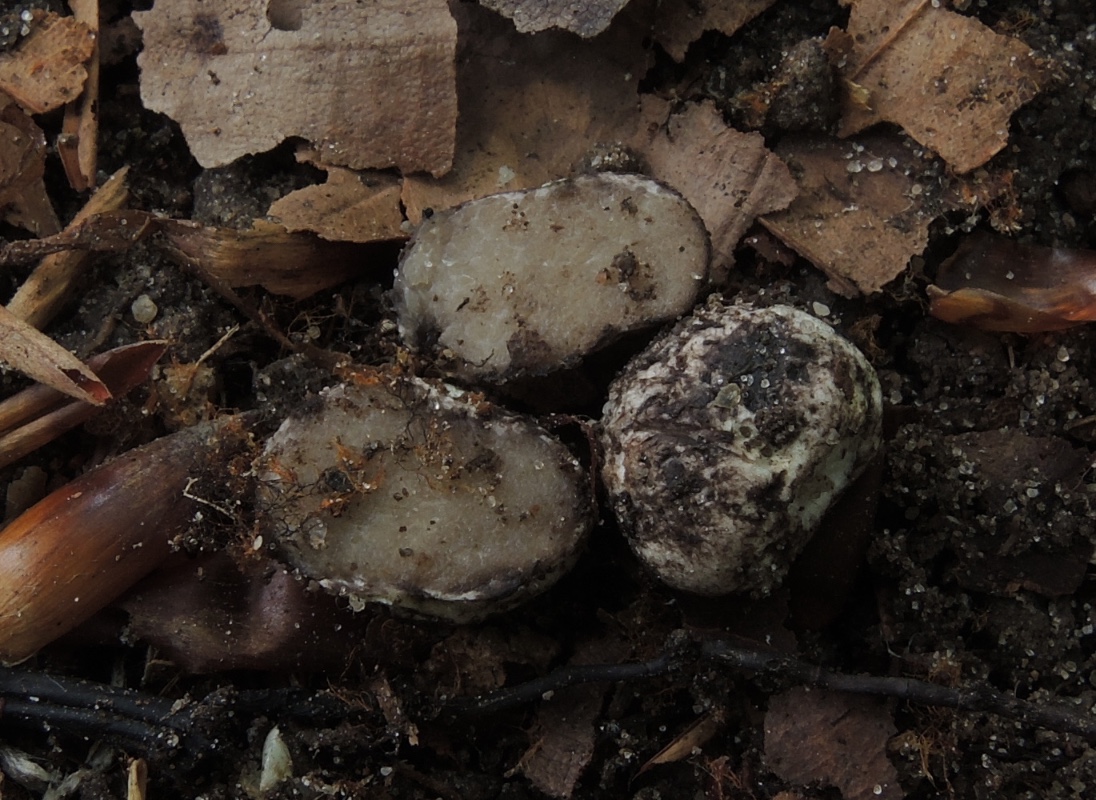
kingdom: Fungi
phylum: Basidiomycota
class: Agaricomycetes
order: Boletales
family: Boletaceae
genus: Octaviania
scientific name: Octaviania
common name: løvtrøffel
